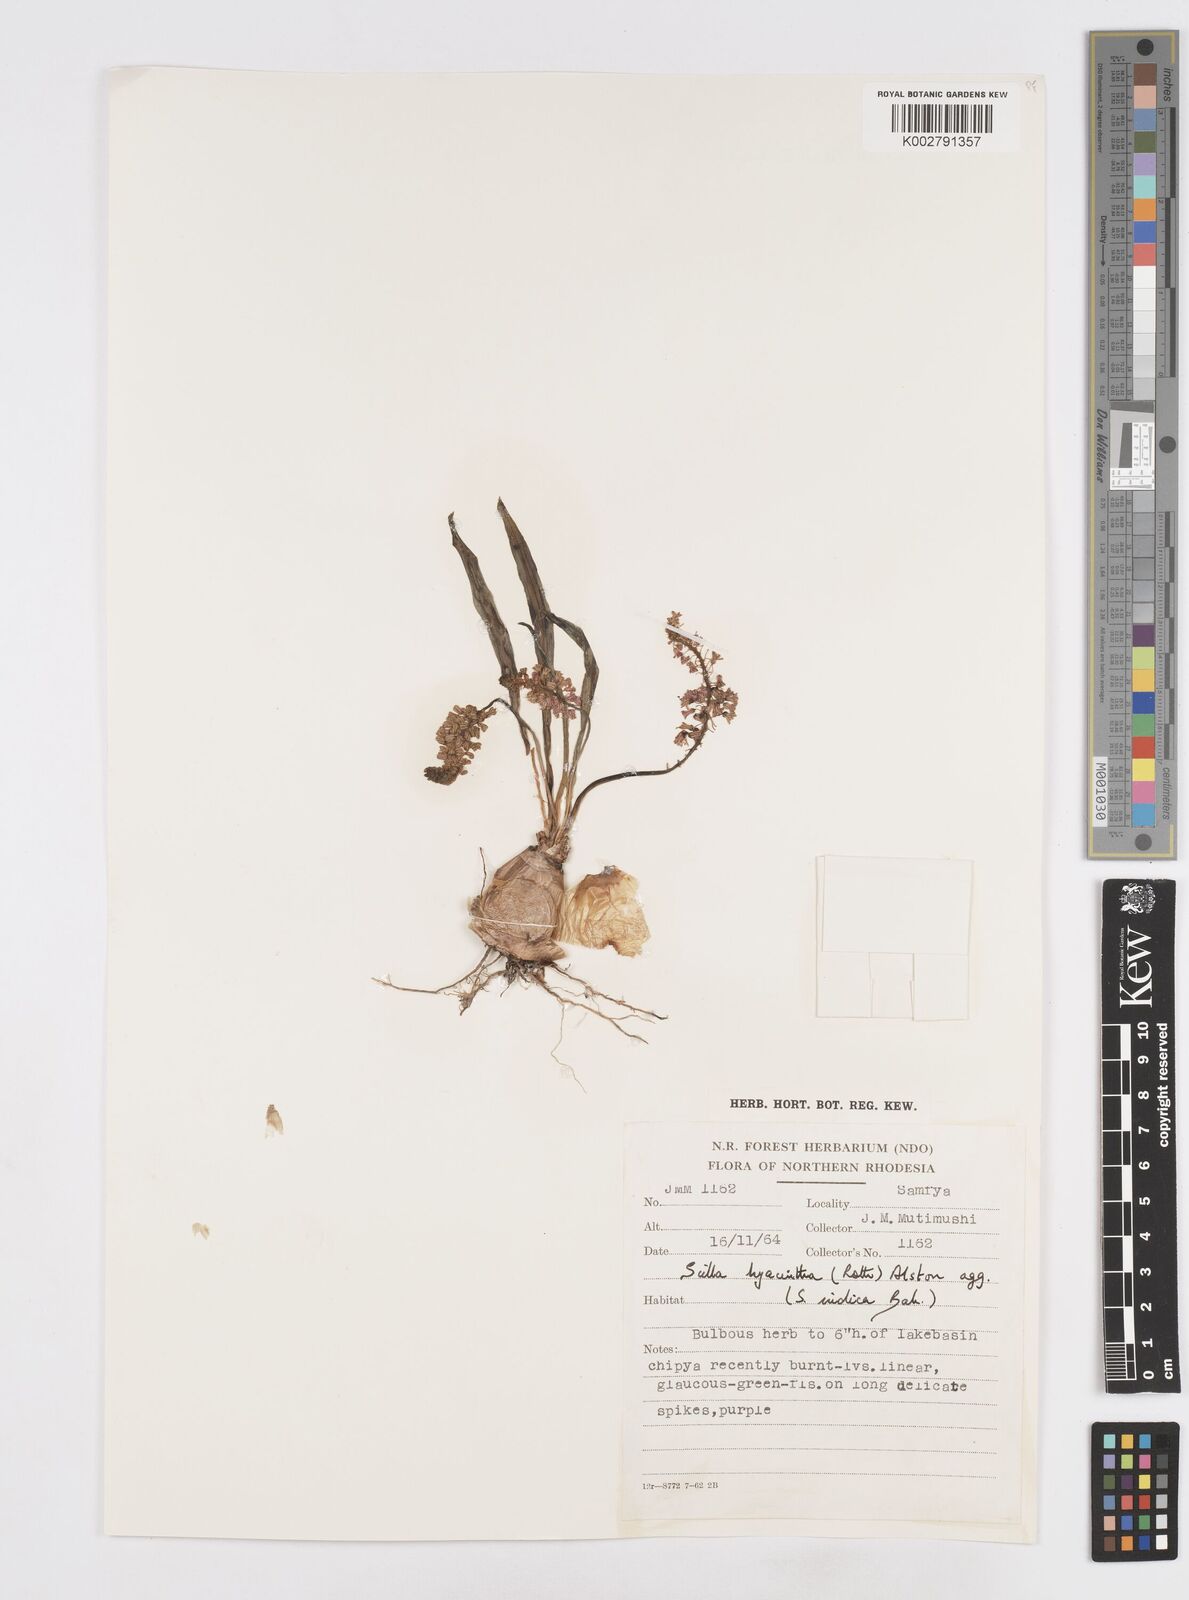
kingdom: Plantae
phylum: Tracheophyta
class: Liliopsida
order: Asparagales
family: Asparagaceae
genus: Ledebouria
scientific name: Ledebouria revoluta
